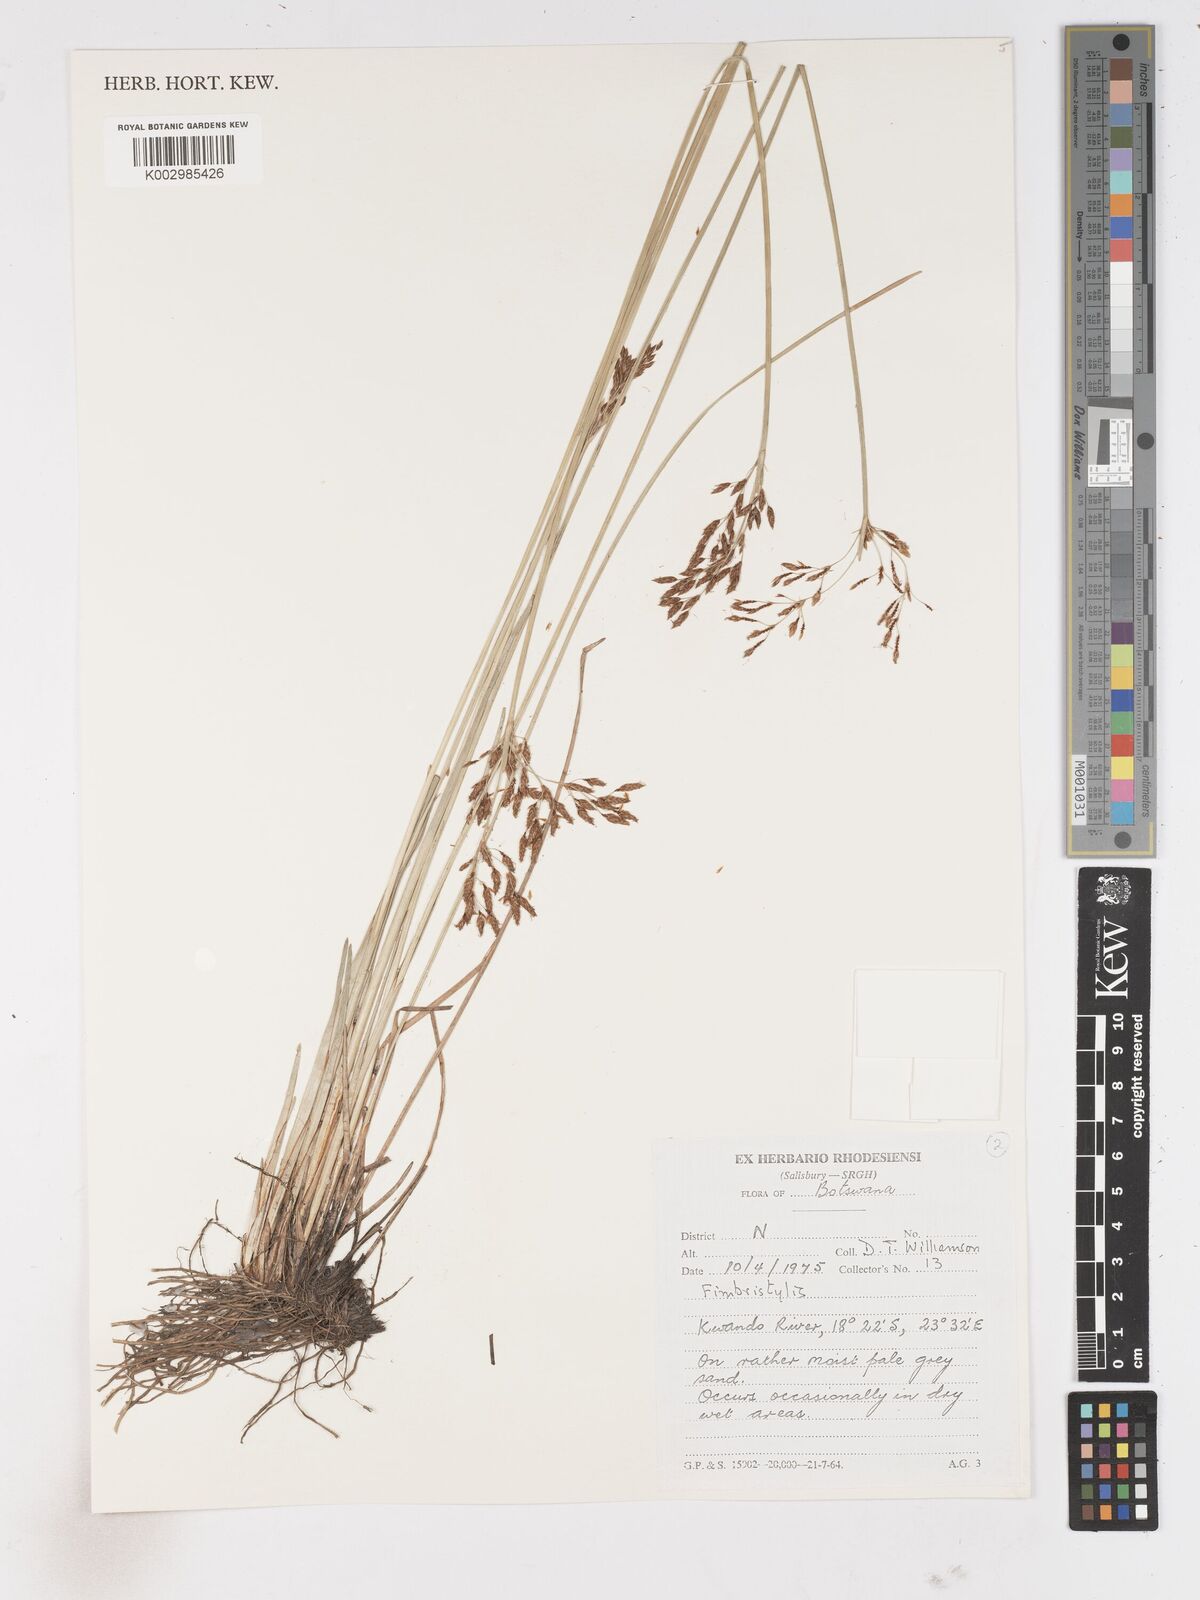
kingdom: Plantae
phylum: Tracheophyta
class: Liliopsida
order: Poales
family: Cyperaceae
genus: Fimbristylis
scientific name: Fimbristylis
